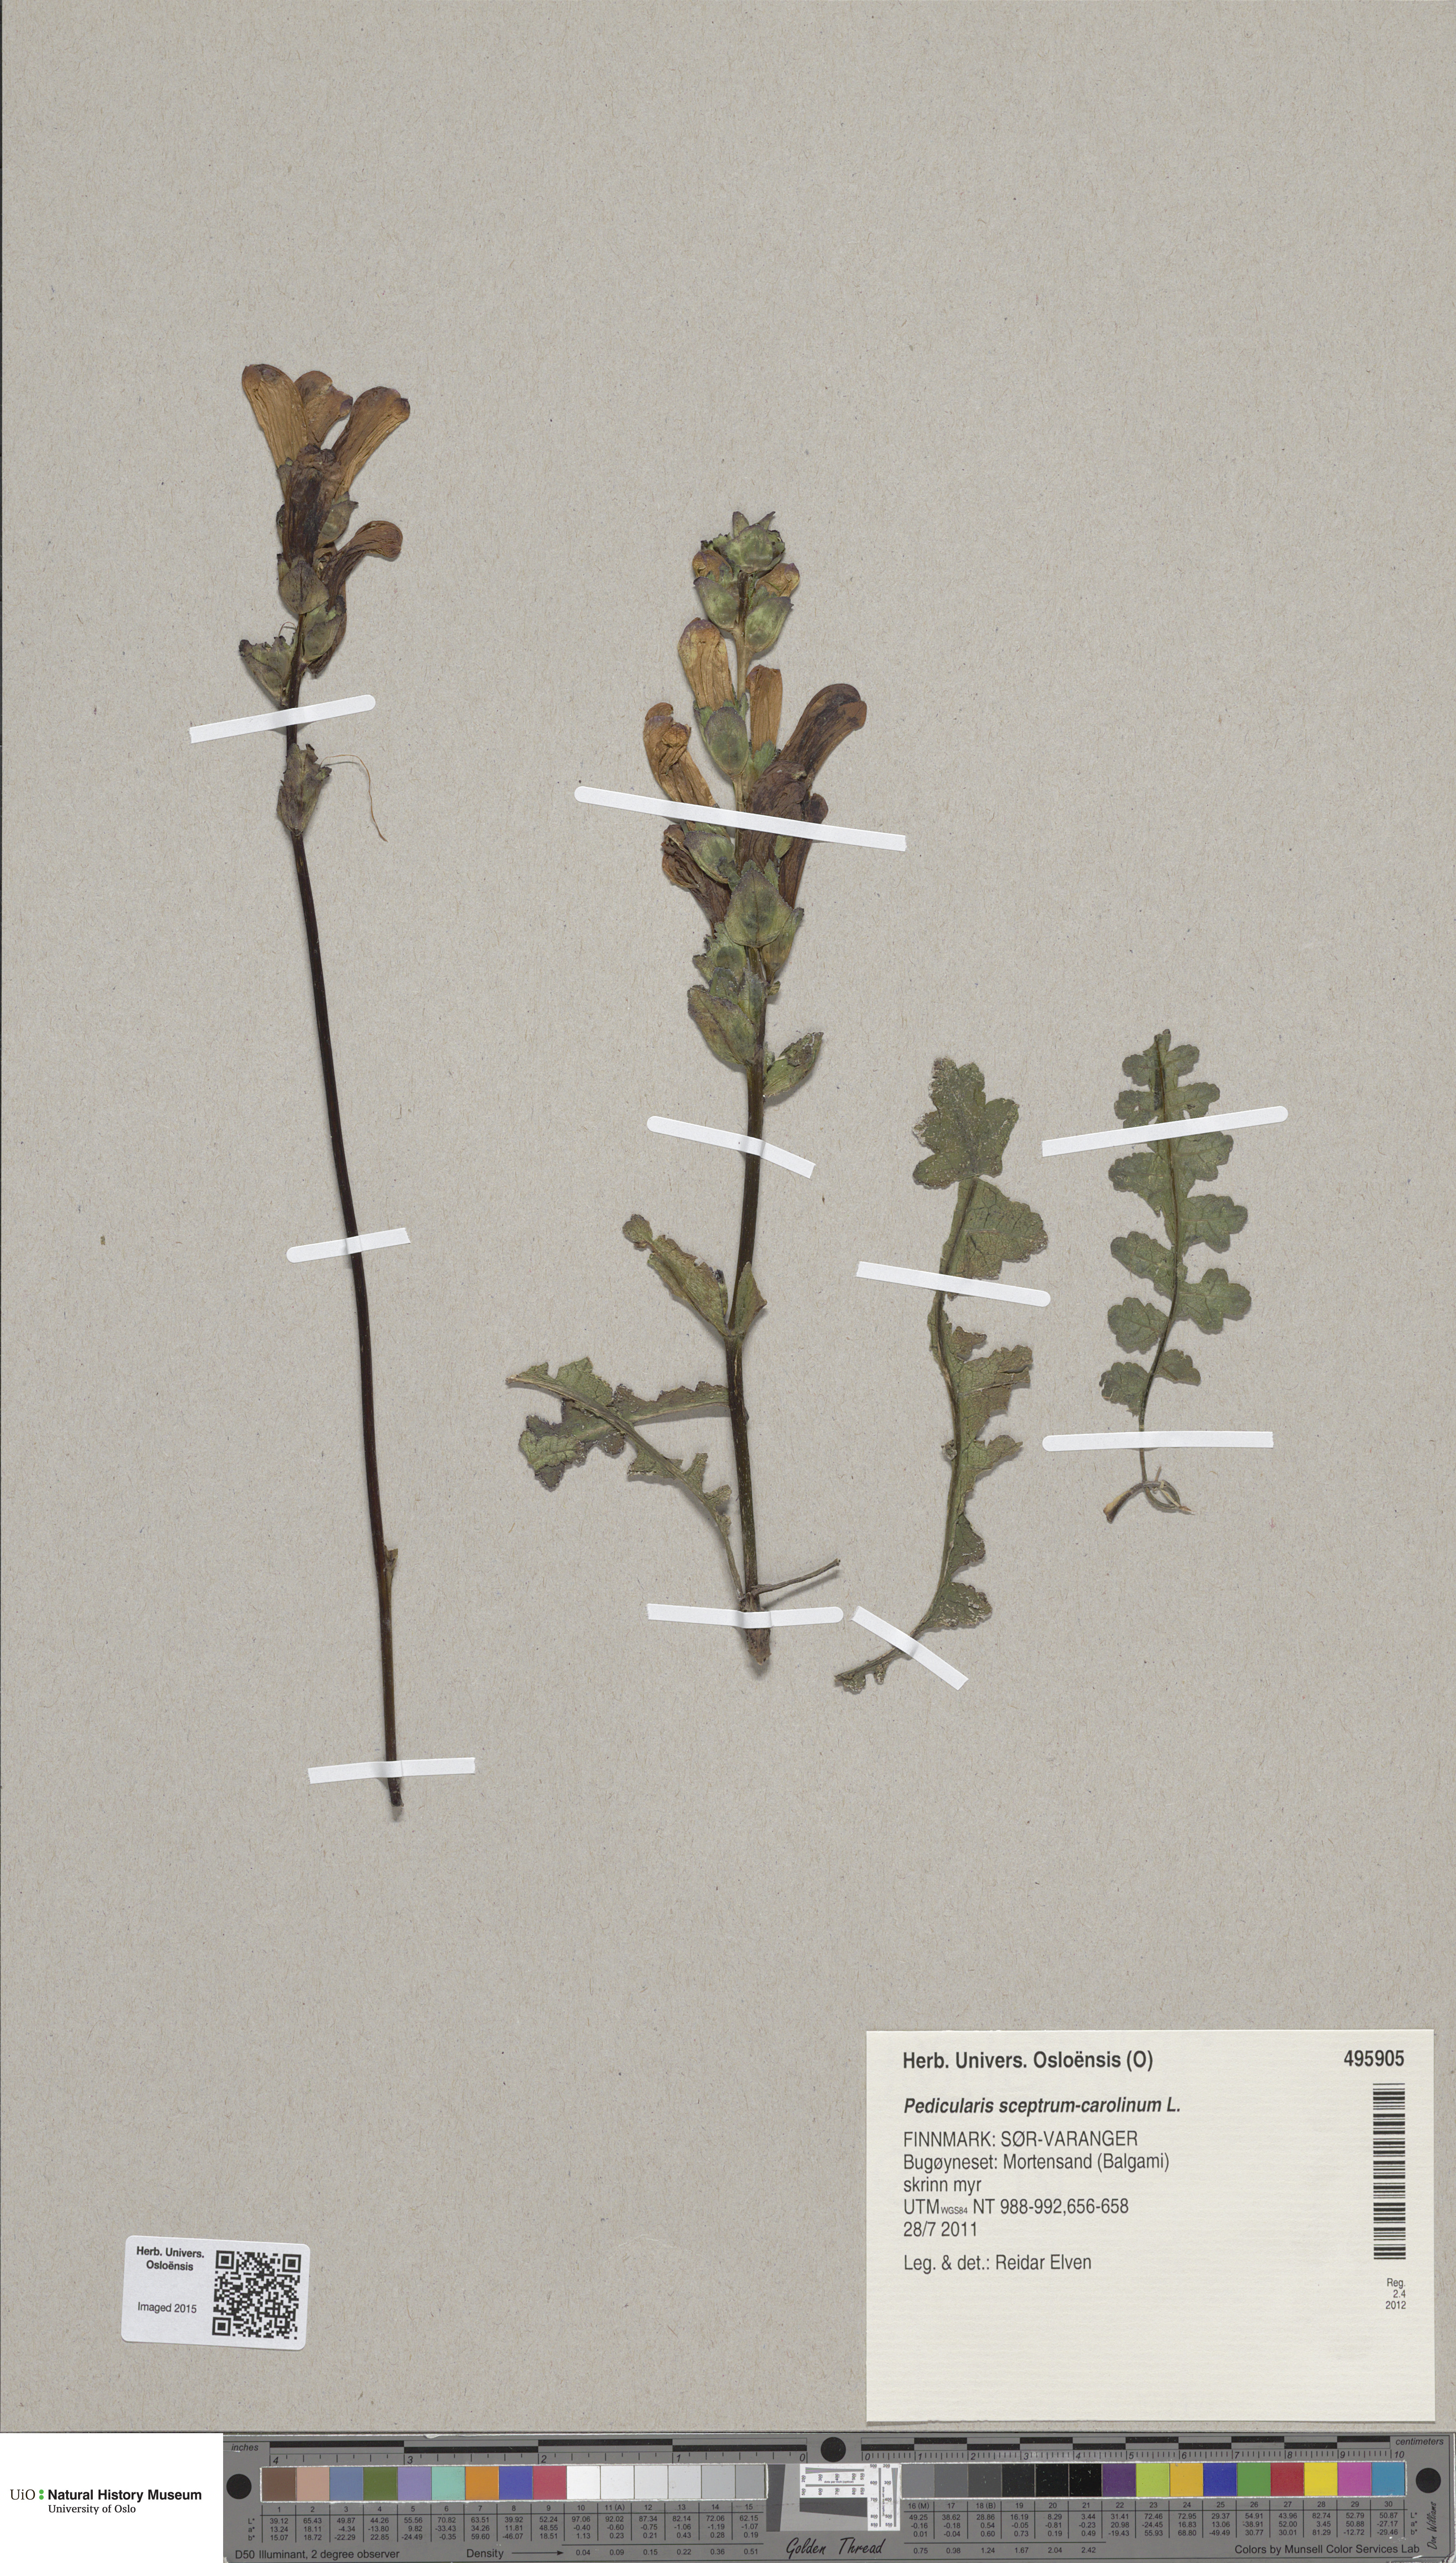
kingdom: Plantae
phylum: Tracheophyta
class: Magnoliopsida
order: Lamiales
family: Orobanchaceae
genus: Pedicularis
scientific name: Pedicularis sceptrum-carolinum
